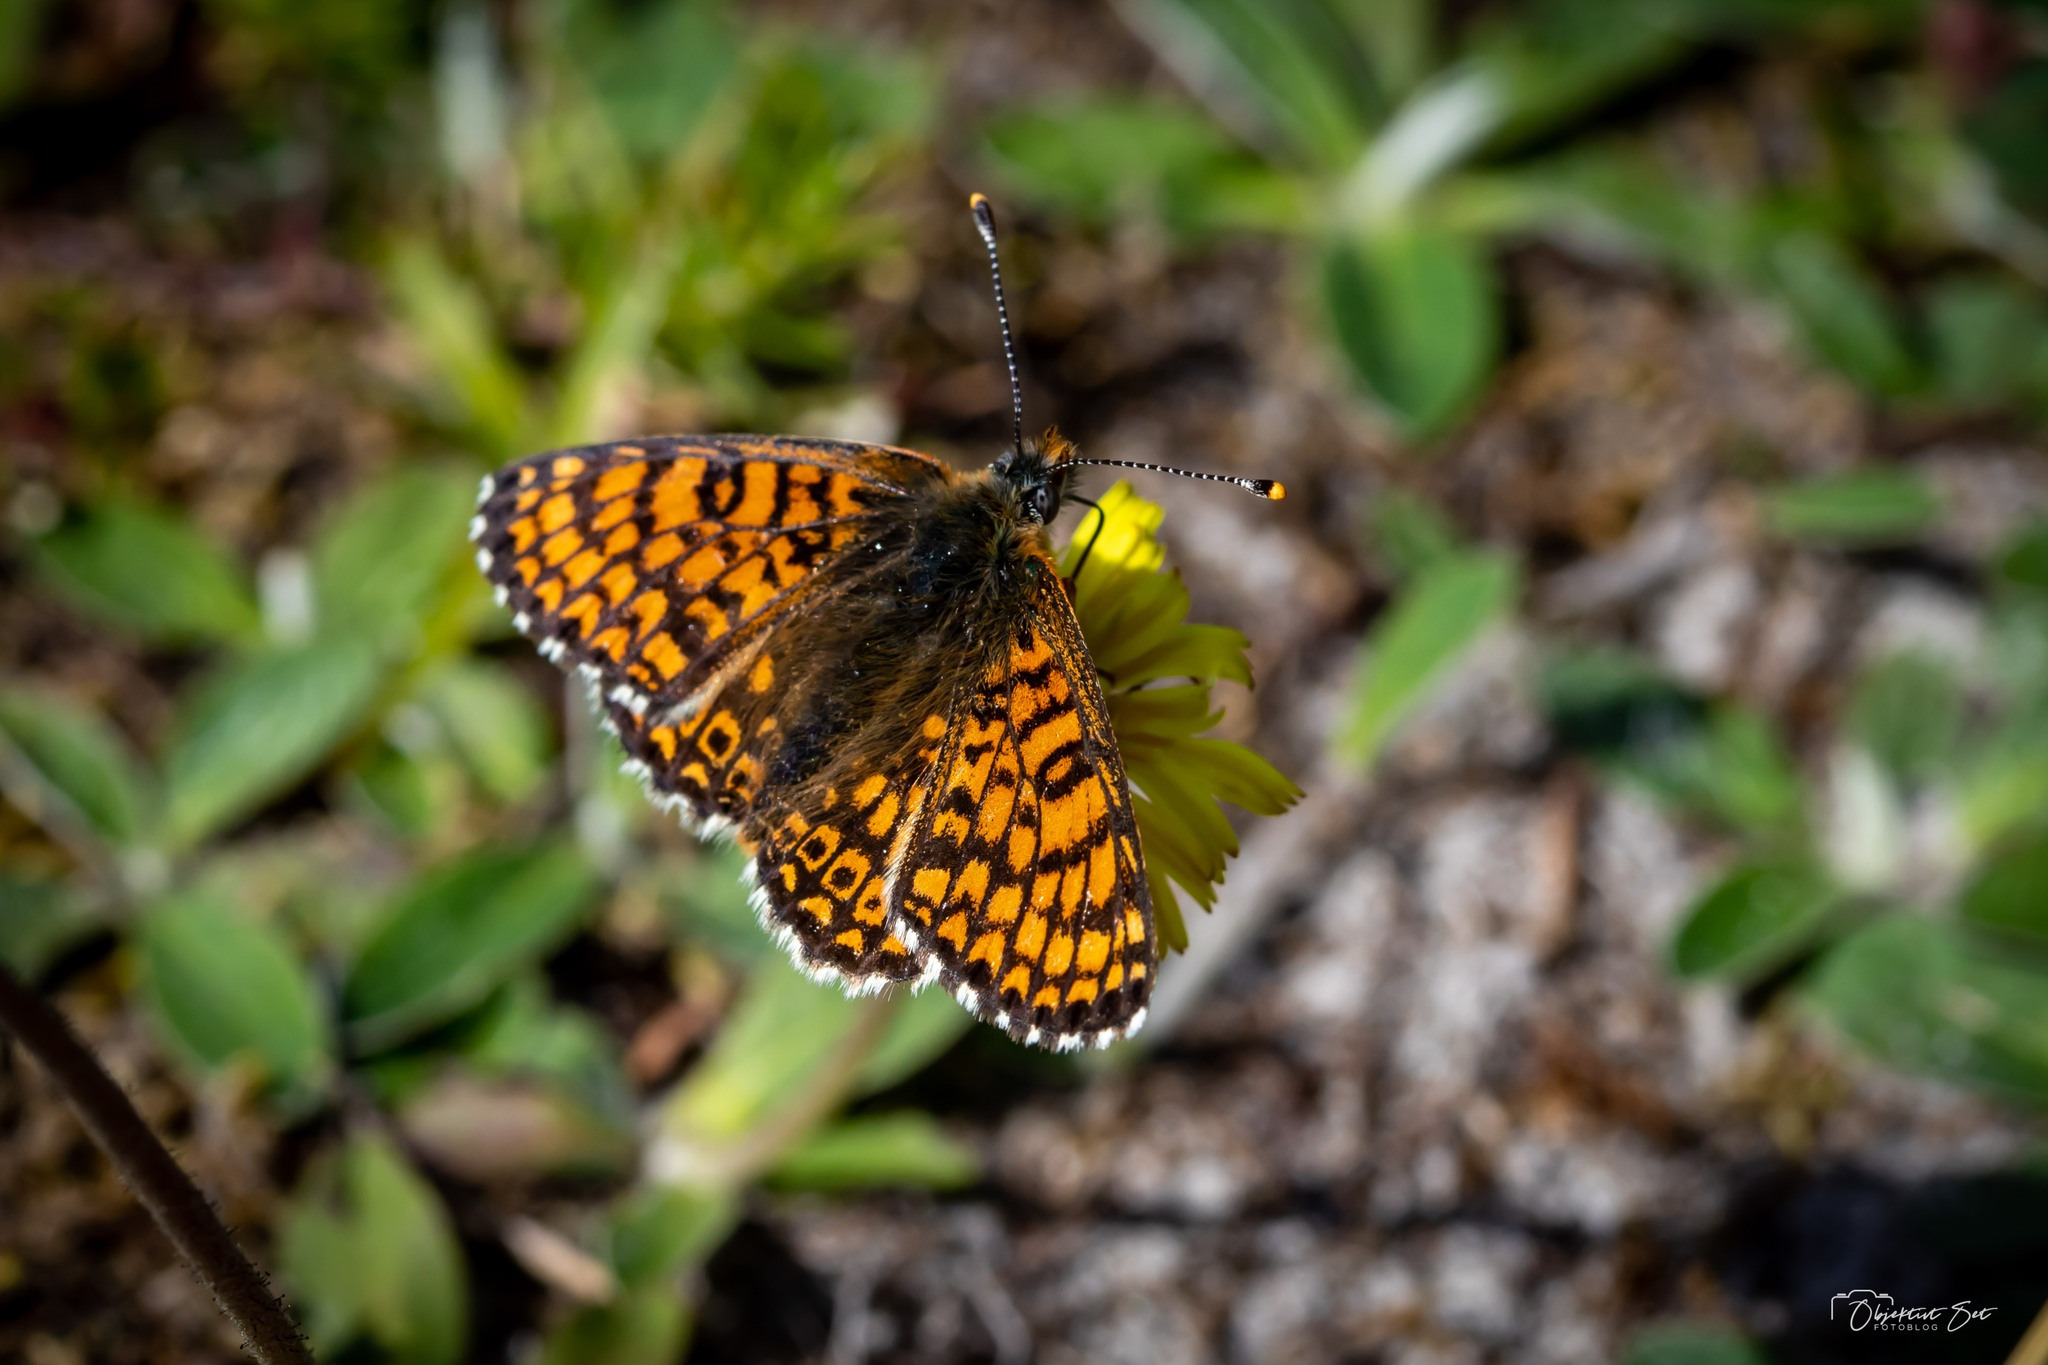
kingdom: Animalia
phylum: Arthropoda
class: Insecta
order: Lepidoptera
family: Nymphalidae
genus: Melitaea
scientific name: Melitaea cinxia
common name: Okkergul pletvinge
